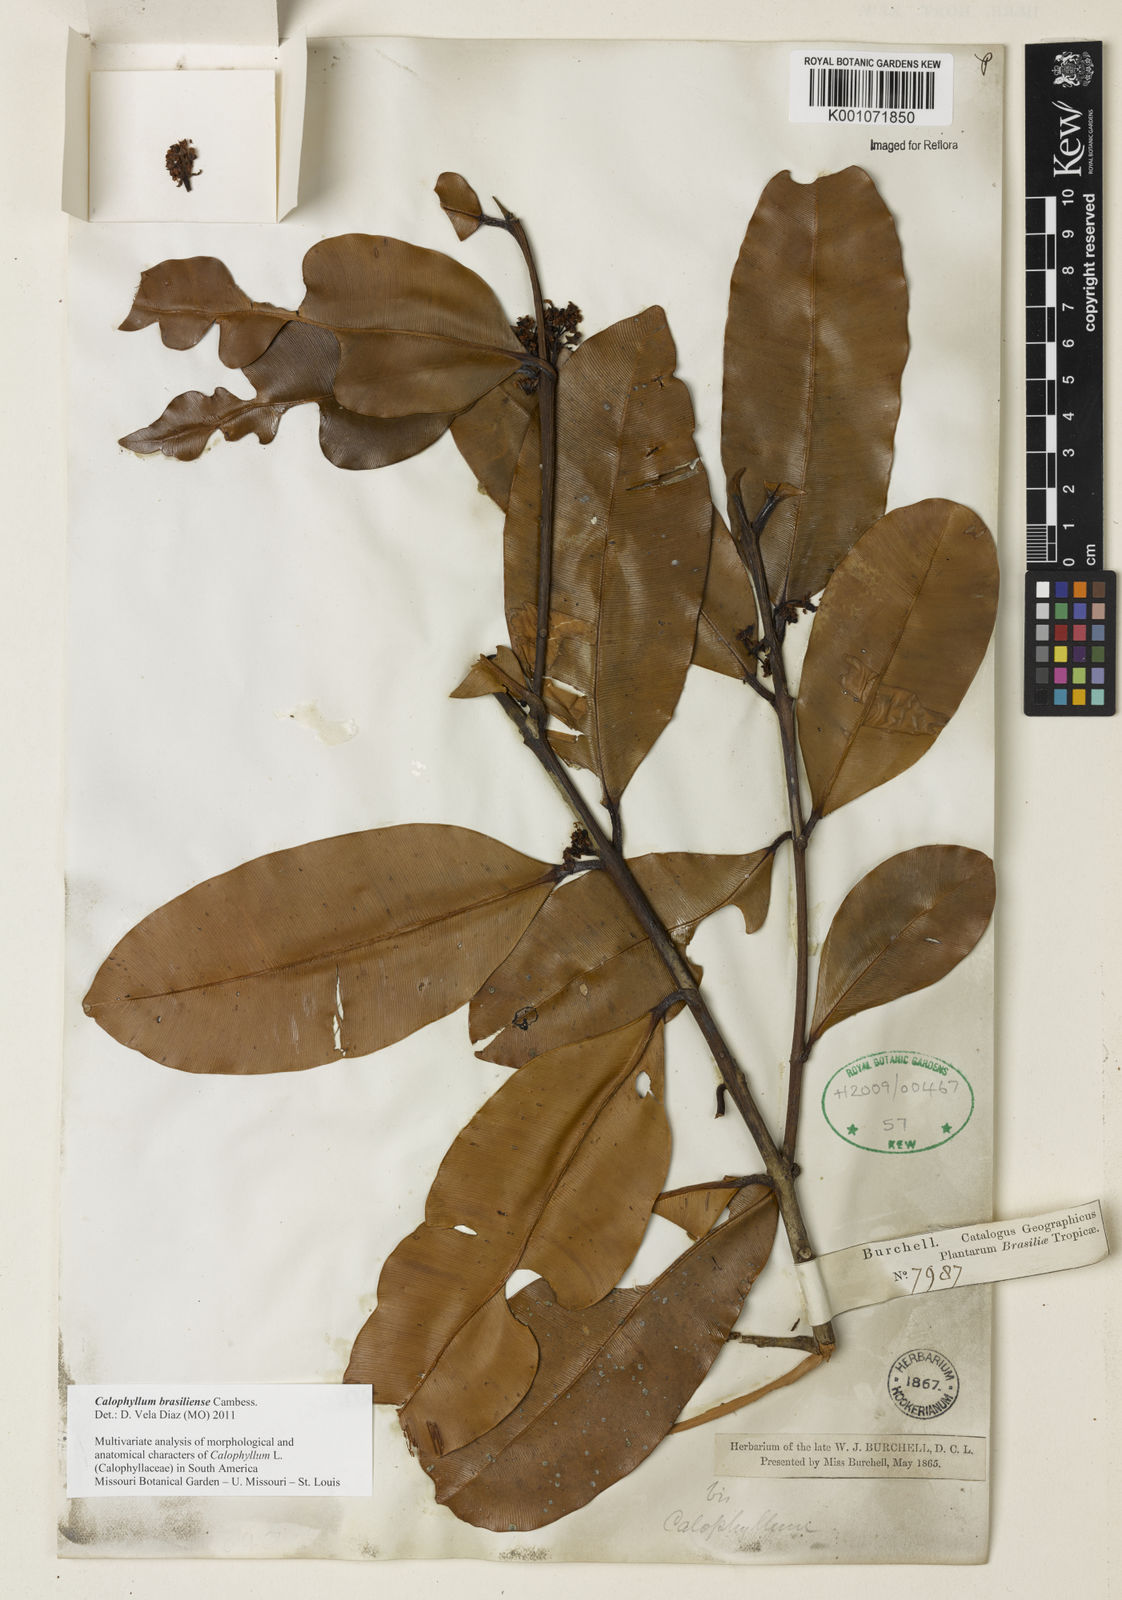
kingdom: Plantae
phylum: Tracheophyta
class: Magnoliopsida
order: Malpighiales
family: Calophyllaceae
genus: Calophyllum
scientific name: Calophyllum brasiliense
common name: Santa maria
